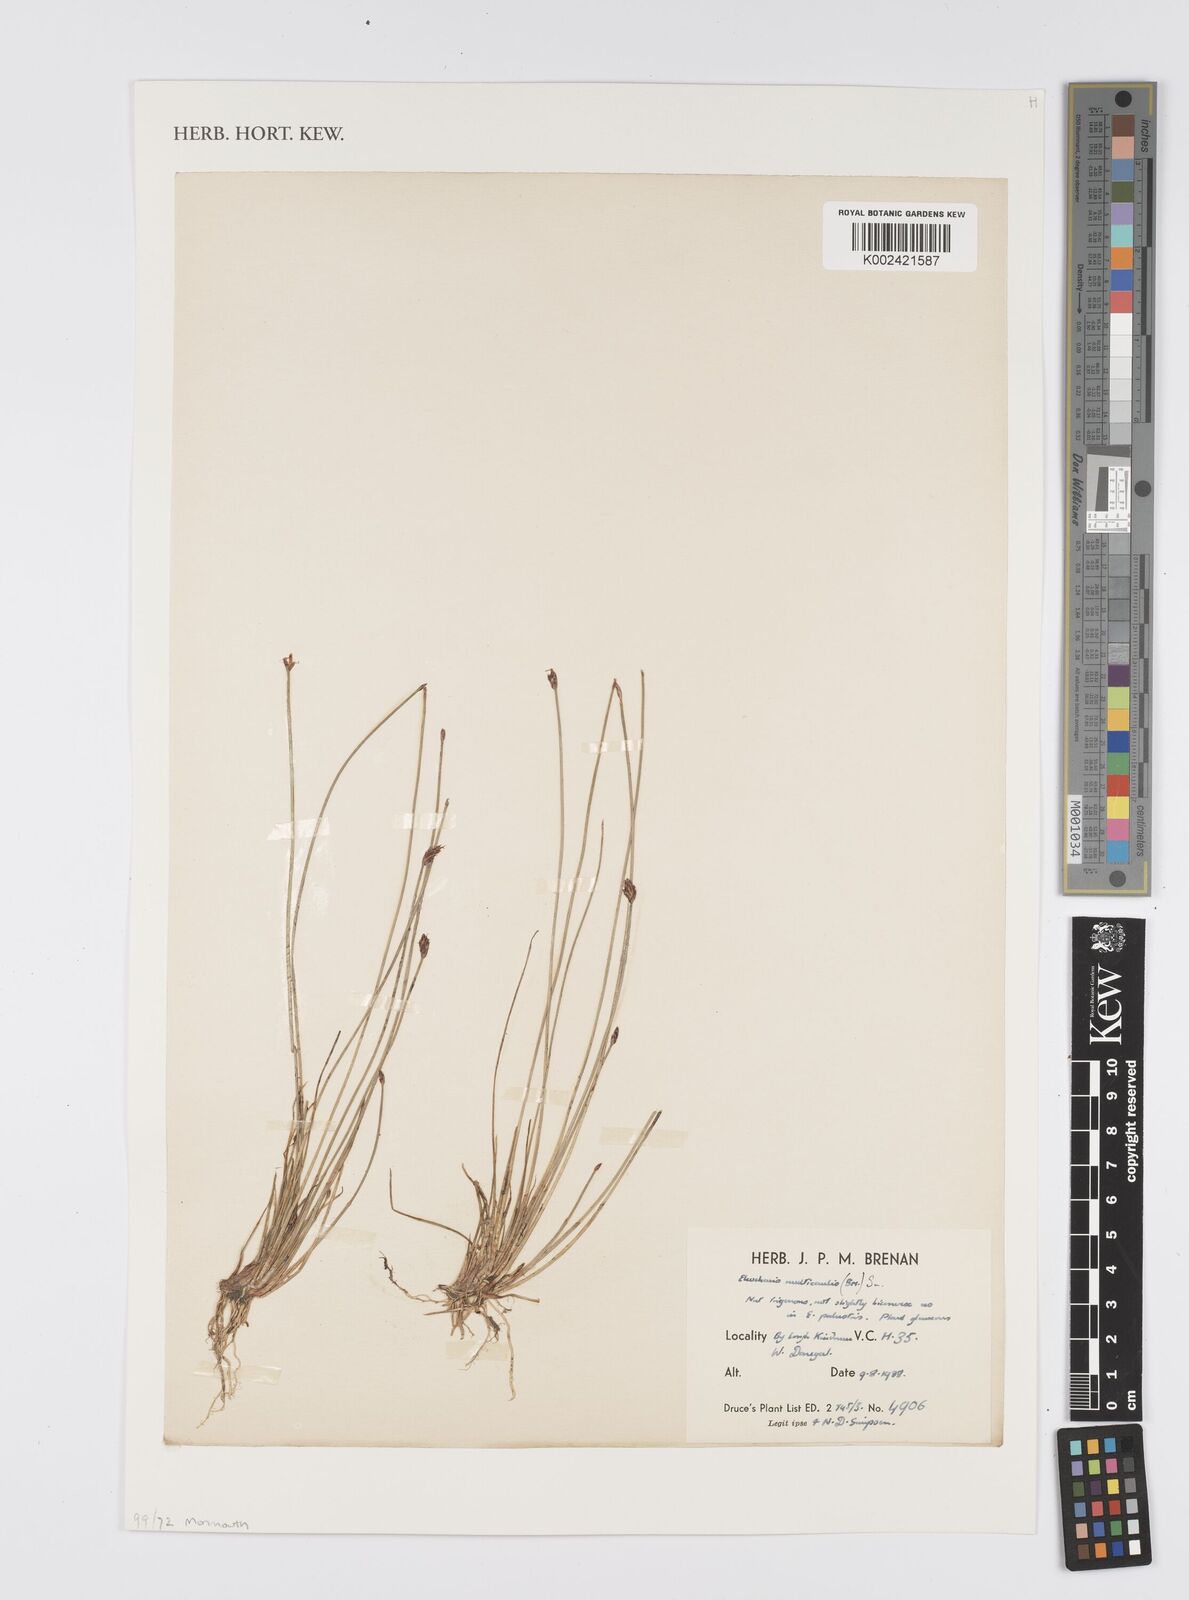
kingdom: Plantae
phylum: Tracheophyta
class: Liliopsida
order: Poales
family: Cyperaceae
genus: Eleocharis
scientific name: Eleocharis multicaulis
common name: Many-stalked spike-rush
